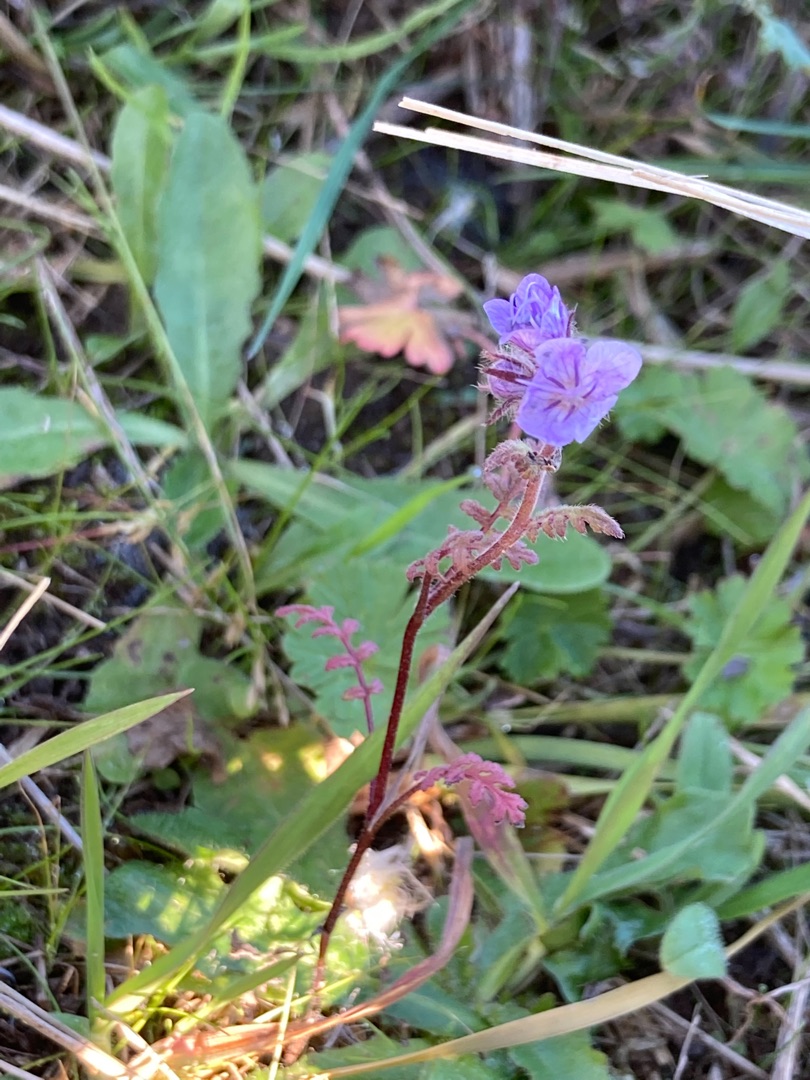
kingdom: Plantae
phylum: Tracheophyta
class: Magnoliopsida
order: Boraginales
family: Hydrophyllaceae
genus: Phacelia
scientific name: Phacelia tanacetifolia
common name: Honningurt
